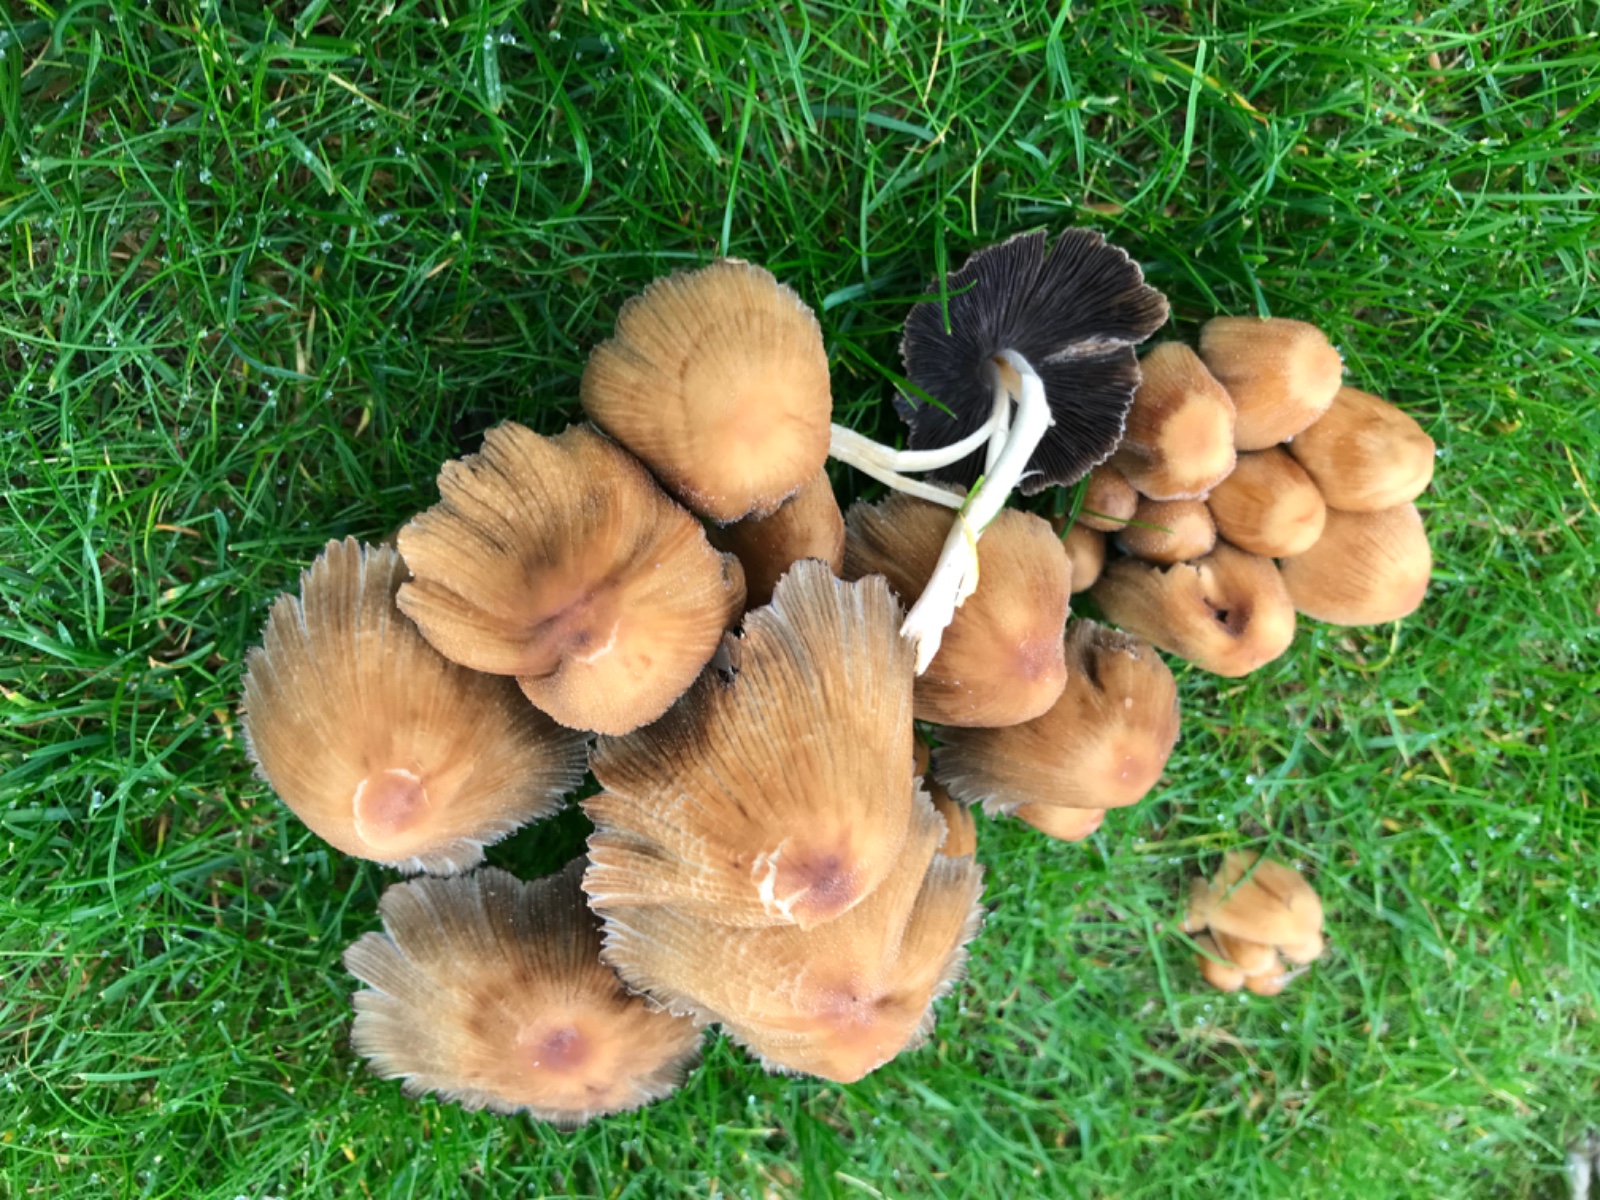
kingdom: Fungi
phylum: Basidiomycota
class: Agaricomycetes
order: Agaricales
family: Psathyrellaceae
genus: Coprinellus
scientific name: Coprinellus micaceus
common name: glimmer-blækhat
